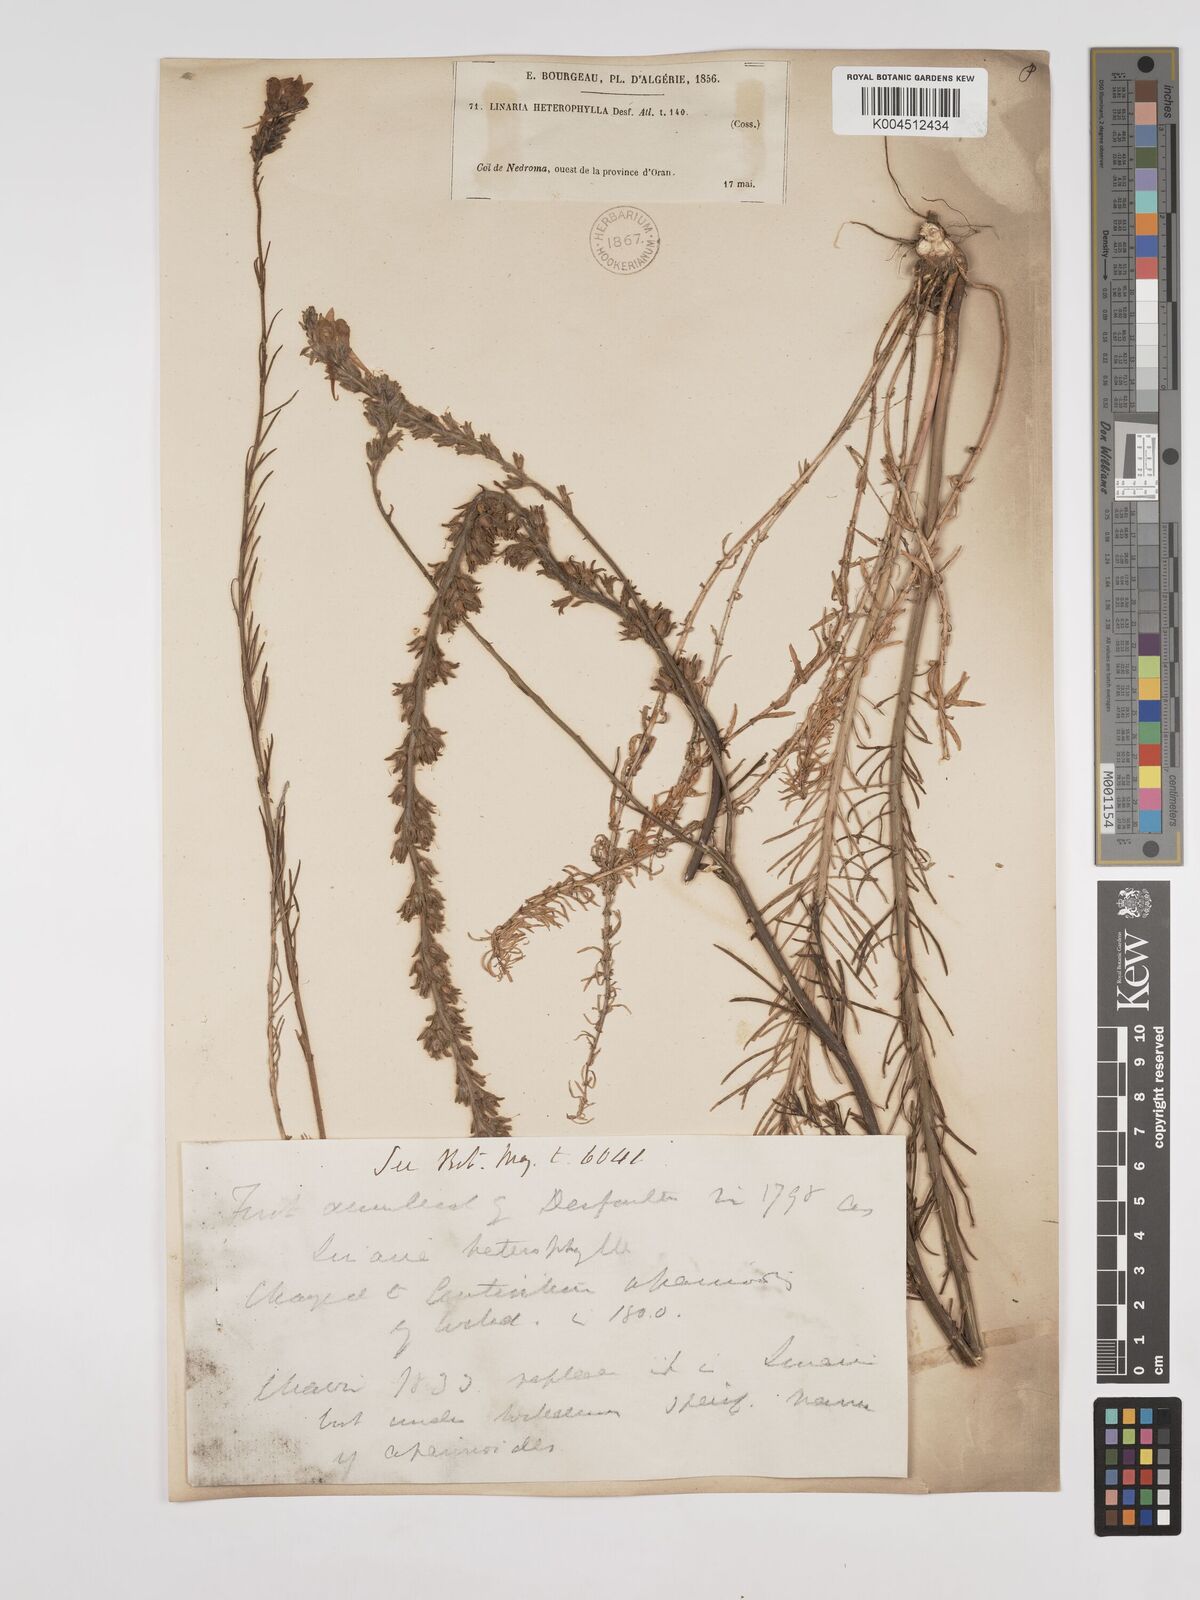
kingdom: Plantae
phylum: Tracheophyta
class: Magnoliopsida
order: Lamiales
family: Plantaginaceae
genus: Linaria
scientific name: Linaria multicaulis
